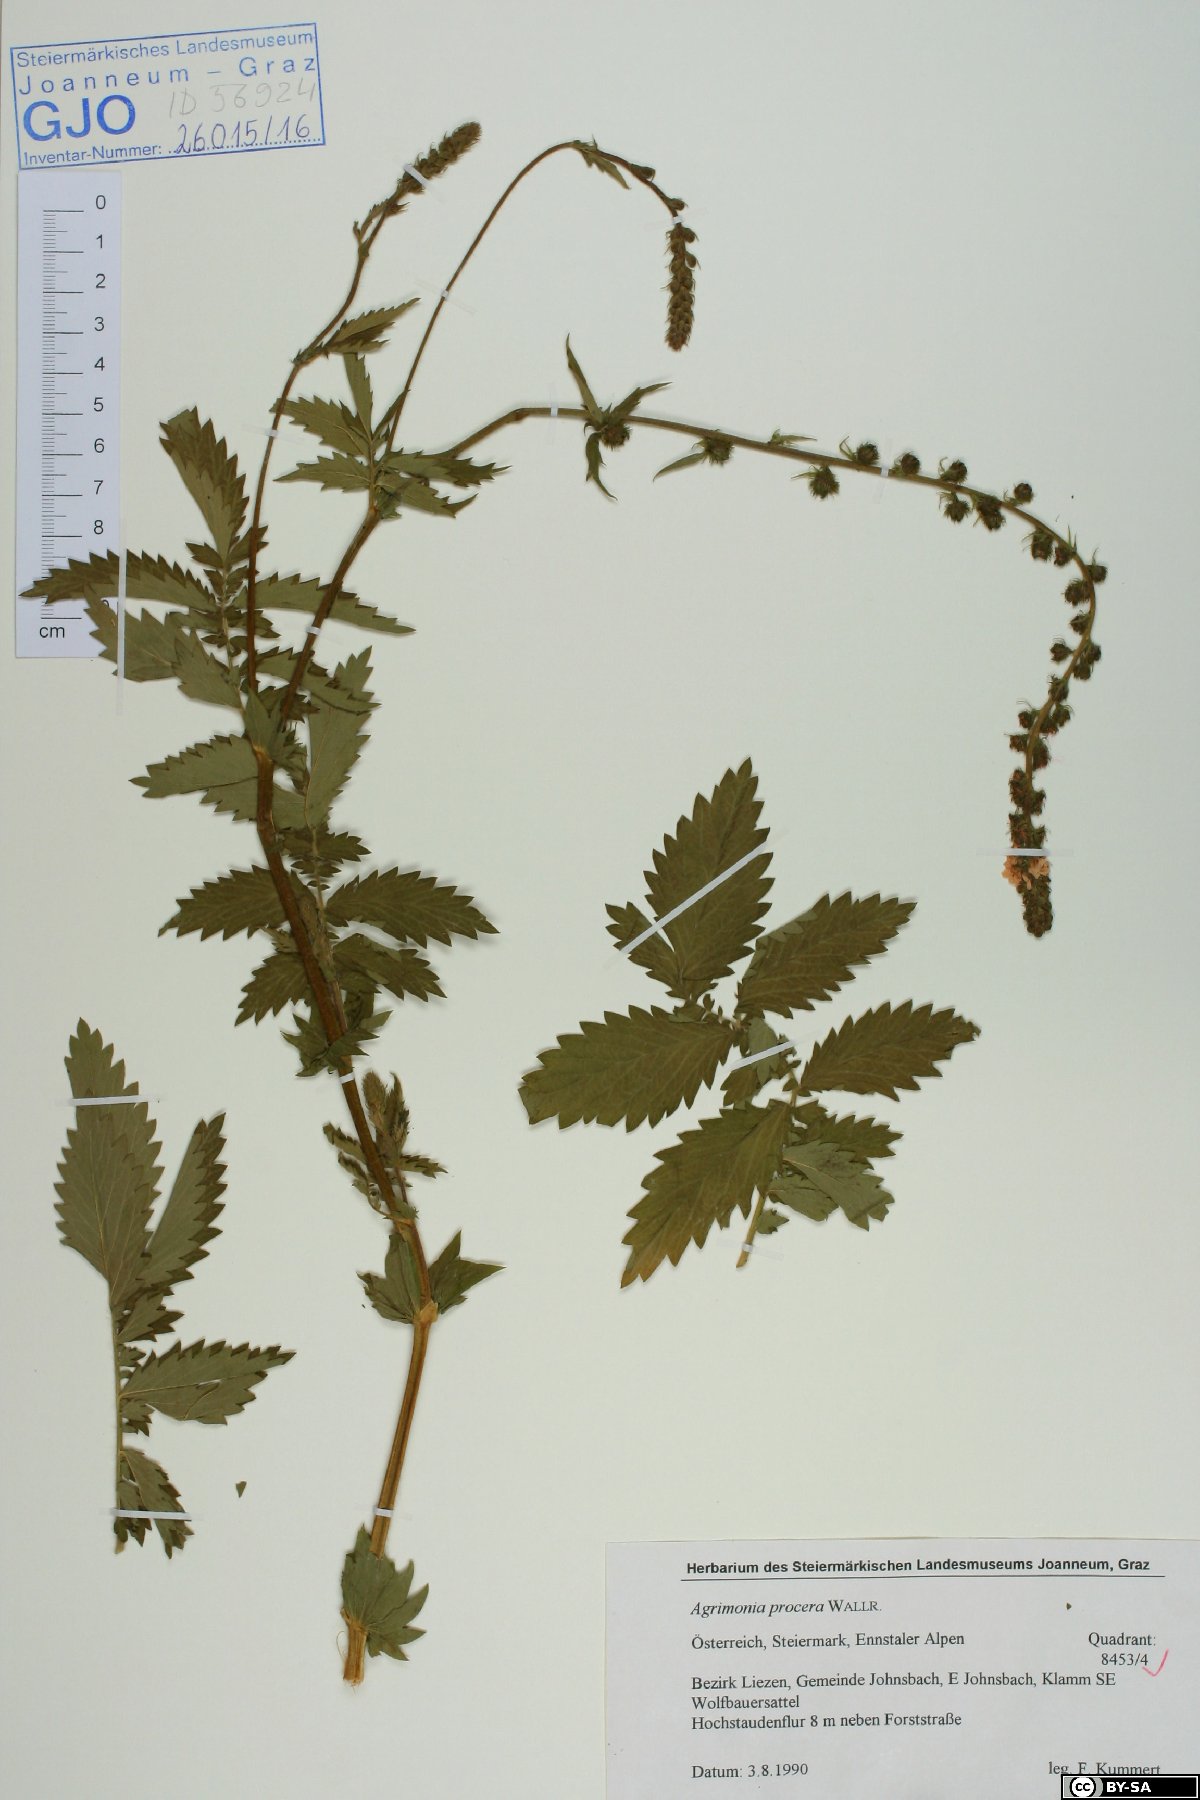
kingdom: Plantae
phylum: Tracheophyta
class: Magnoliopsida
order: Rosales
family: Rosaceae
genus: Agrimonia
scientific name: Agrimonia procera
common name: Fragrant agrimony
